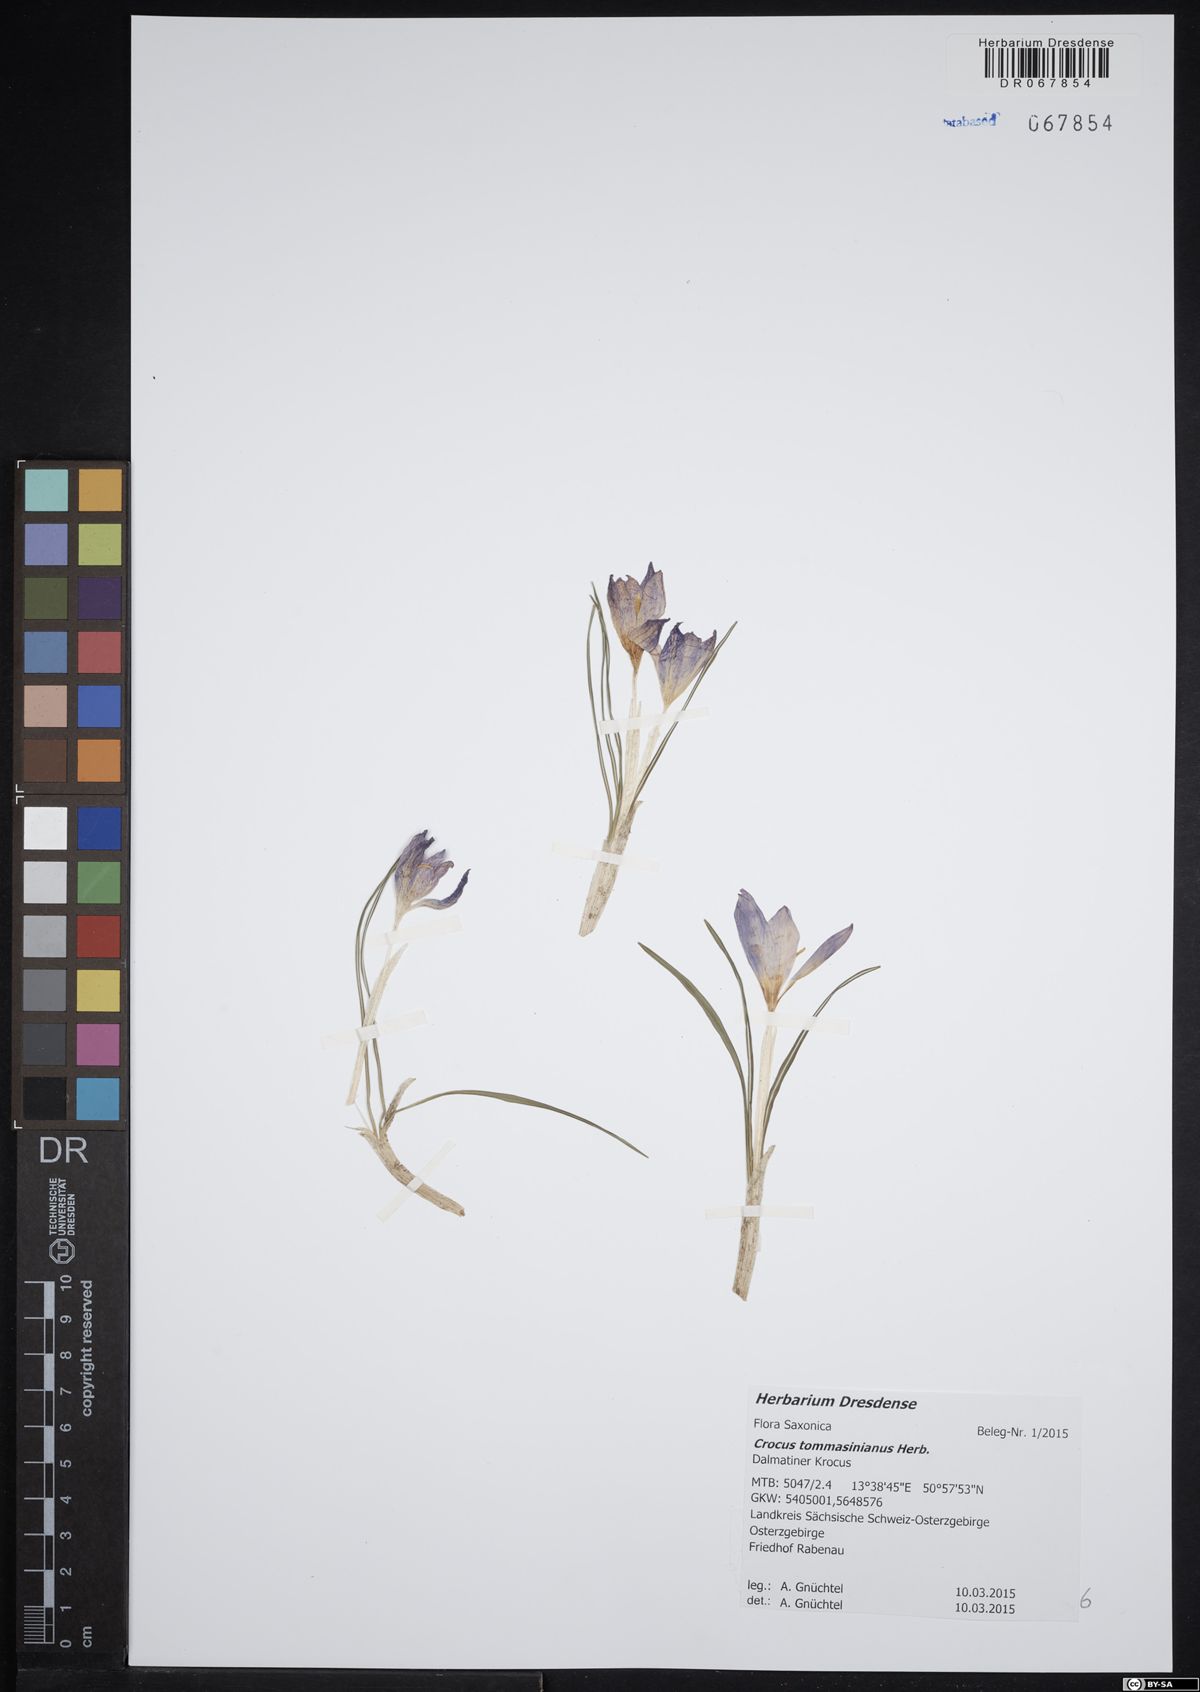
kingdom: Plantae
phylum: Tracheophyta
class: Liliopsida
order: Asparagales
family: Iridaceae
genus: Crocus
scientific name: Crocus tommasinianus
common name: Early crocus
